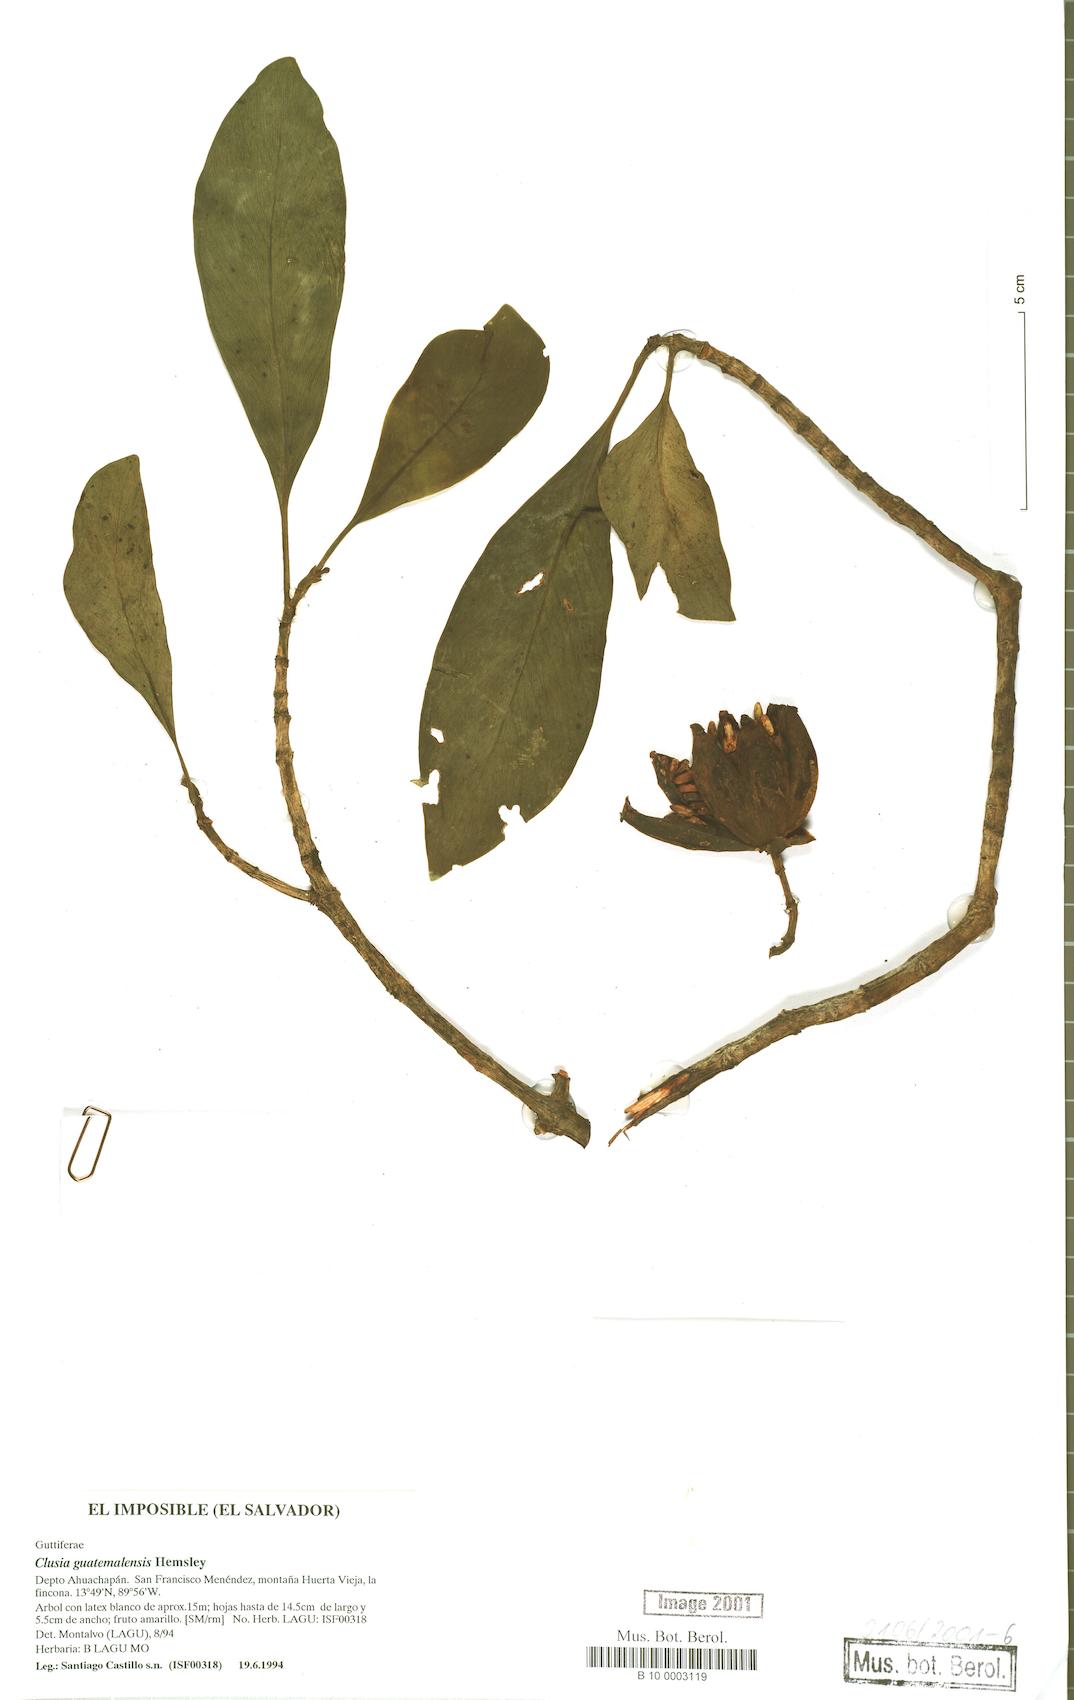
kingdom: Plantae
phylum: Tracheophyta
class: Magnoliopsida
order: Malpighiales
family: Clusiaceae
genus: Clusia
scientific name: Clusia guatemalensis
